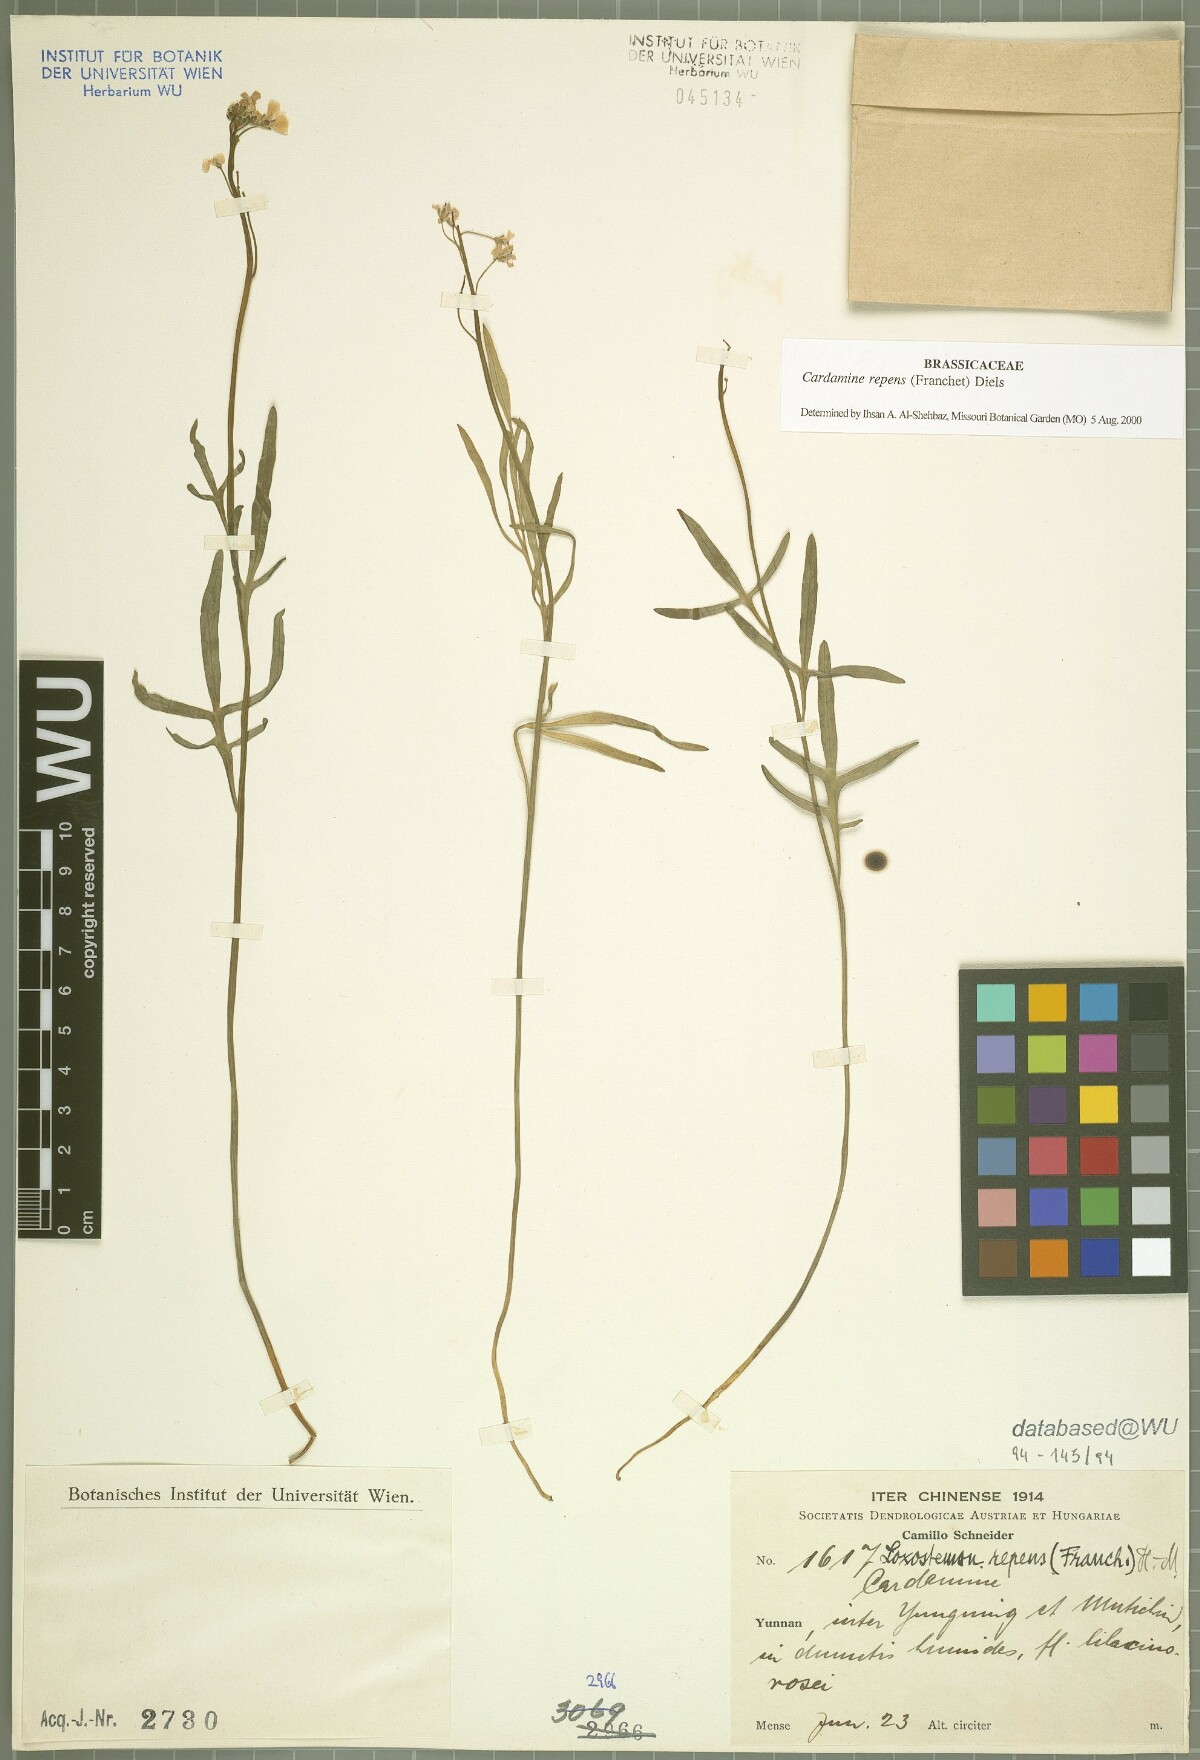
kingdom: Plantae
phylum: Tracheophyta
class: Magnoliopsida
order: Brassicales
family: Brassicaceae
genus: Cardamine
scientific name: Cardamine repens
